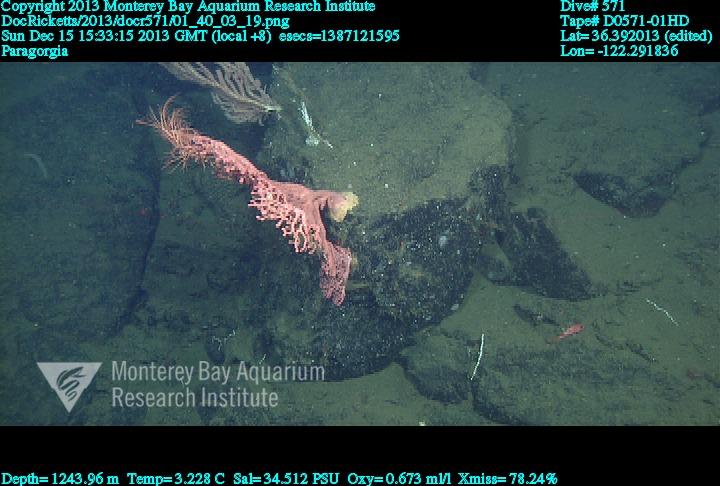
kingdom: Animalia
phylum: Cnidaria
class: Anthozoa
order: Scleralcyonacea
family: Coralliidae
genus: Paragorgia
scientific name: Paragorgia arborea
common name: Bubble gum coral
